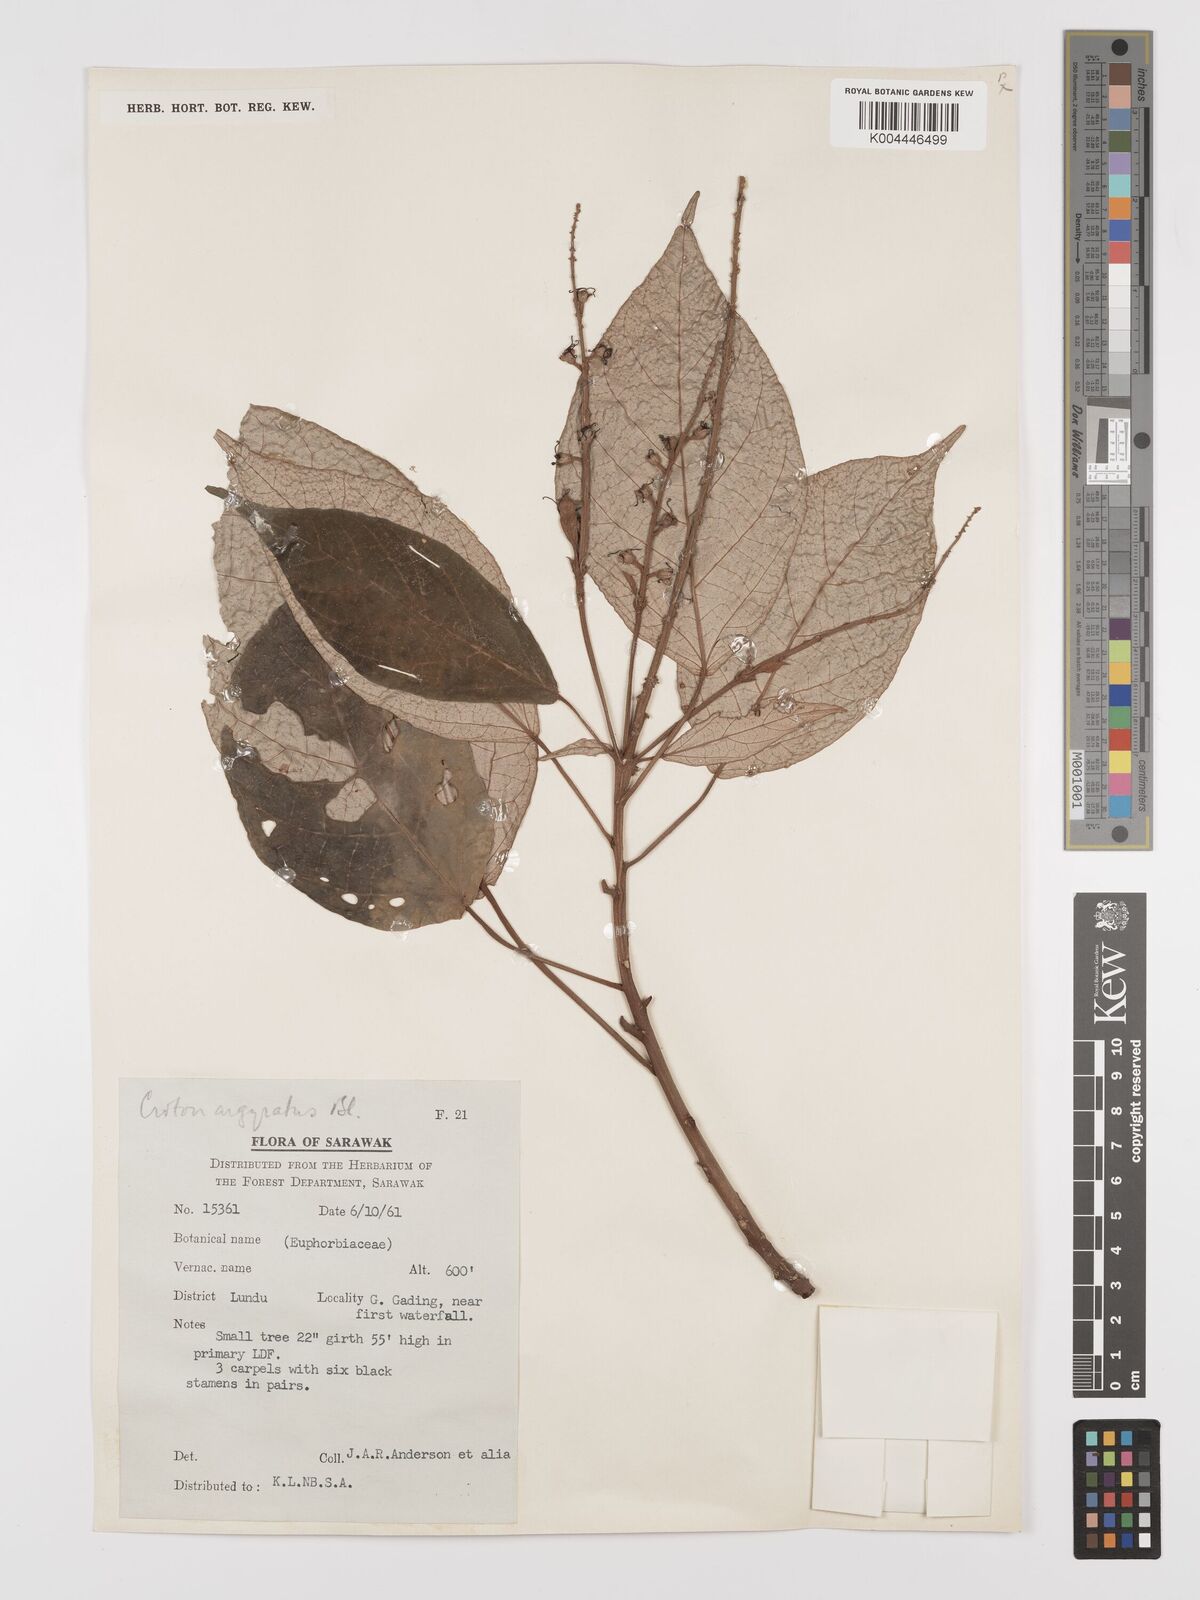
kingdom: Plantae
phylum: Tracheophyta
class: Magnoliopsida
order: Malpighiales
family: Euphorbiaceae
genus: Croton
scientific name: Croton argyratus
